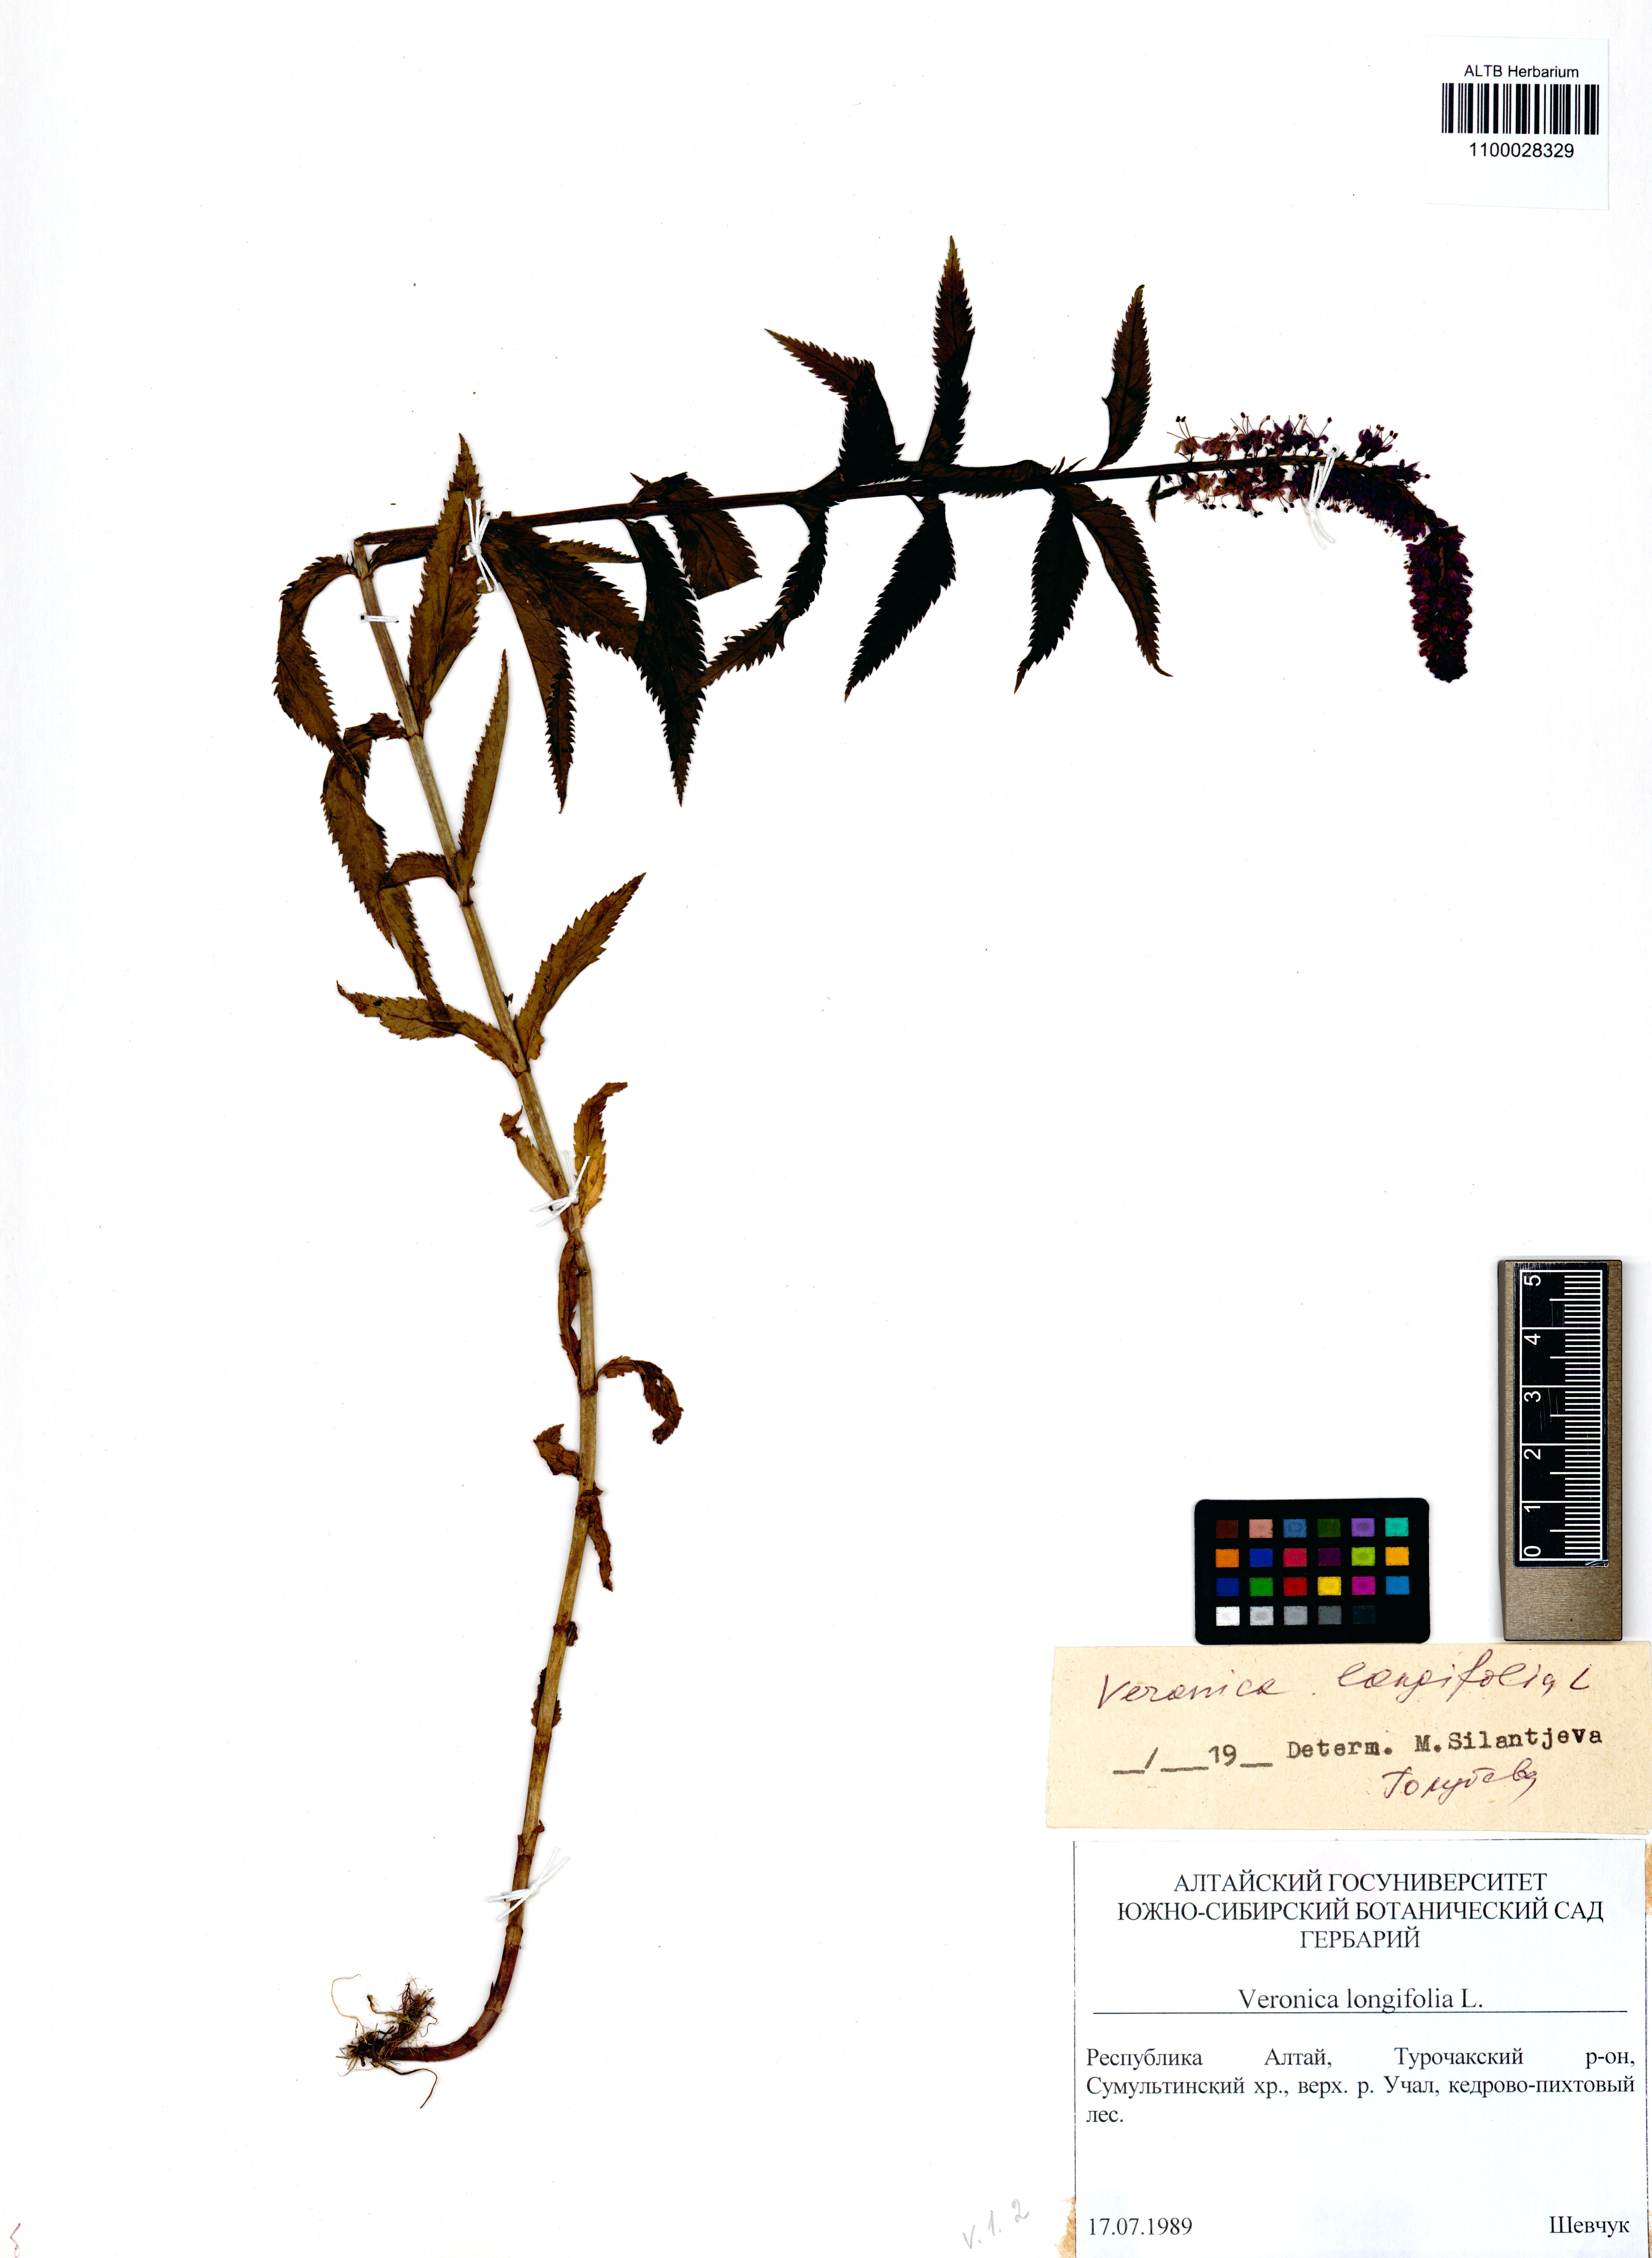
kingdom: Plantae
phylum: Tracheophyta
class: Magnoliopsida
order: Lamiales
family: Plantaginaceae
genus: Veronica
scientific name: Veronica longifolia
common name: Garden speedwell
